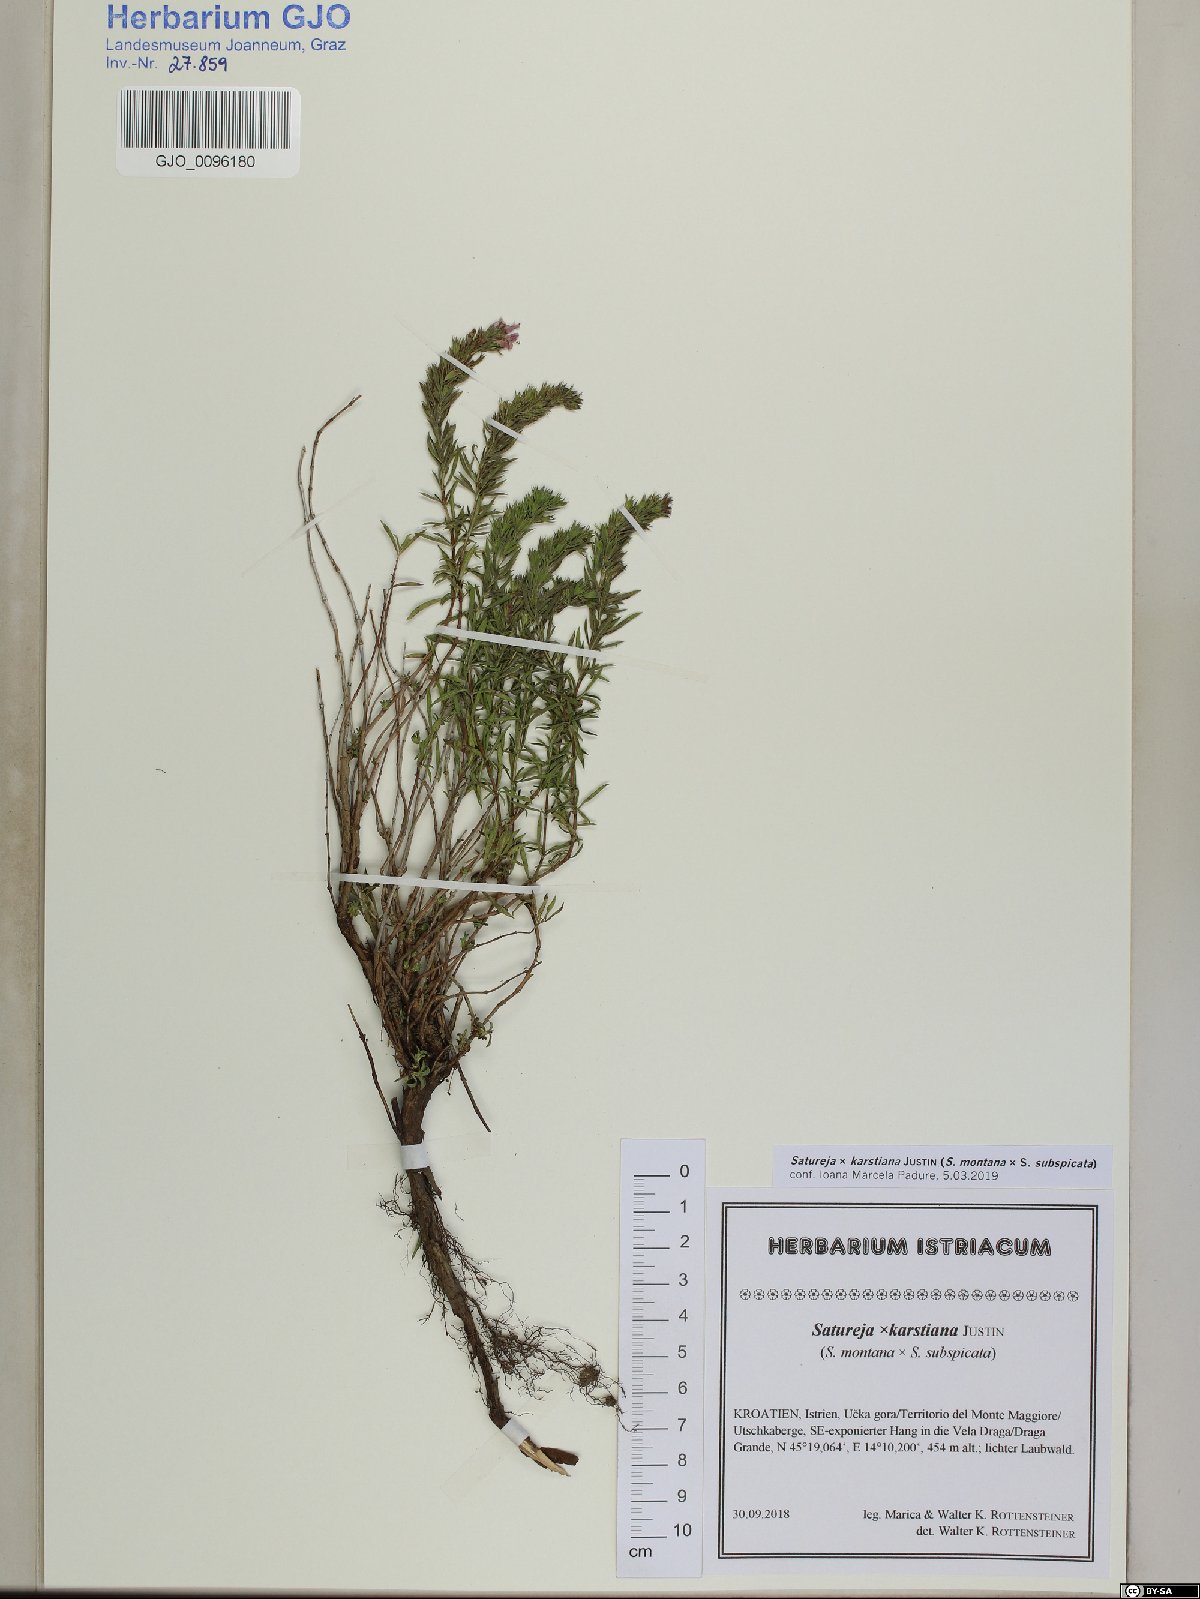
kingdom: Plantae
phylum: Tracheophyta
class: Magnoliopsida
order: Lamiales
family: Lamiaceae
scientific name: Lamiaceae
